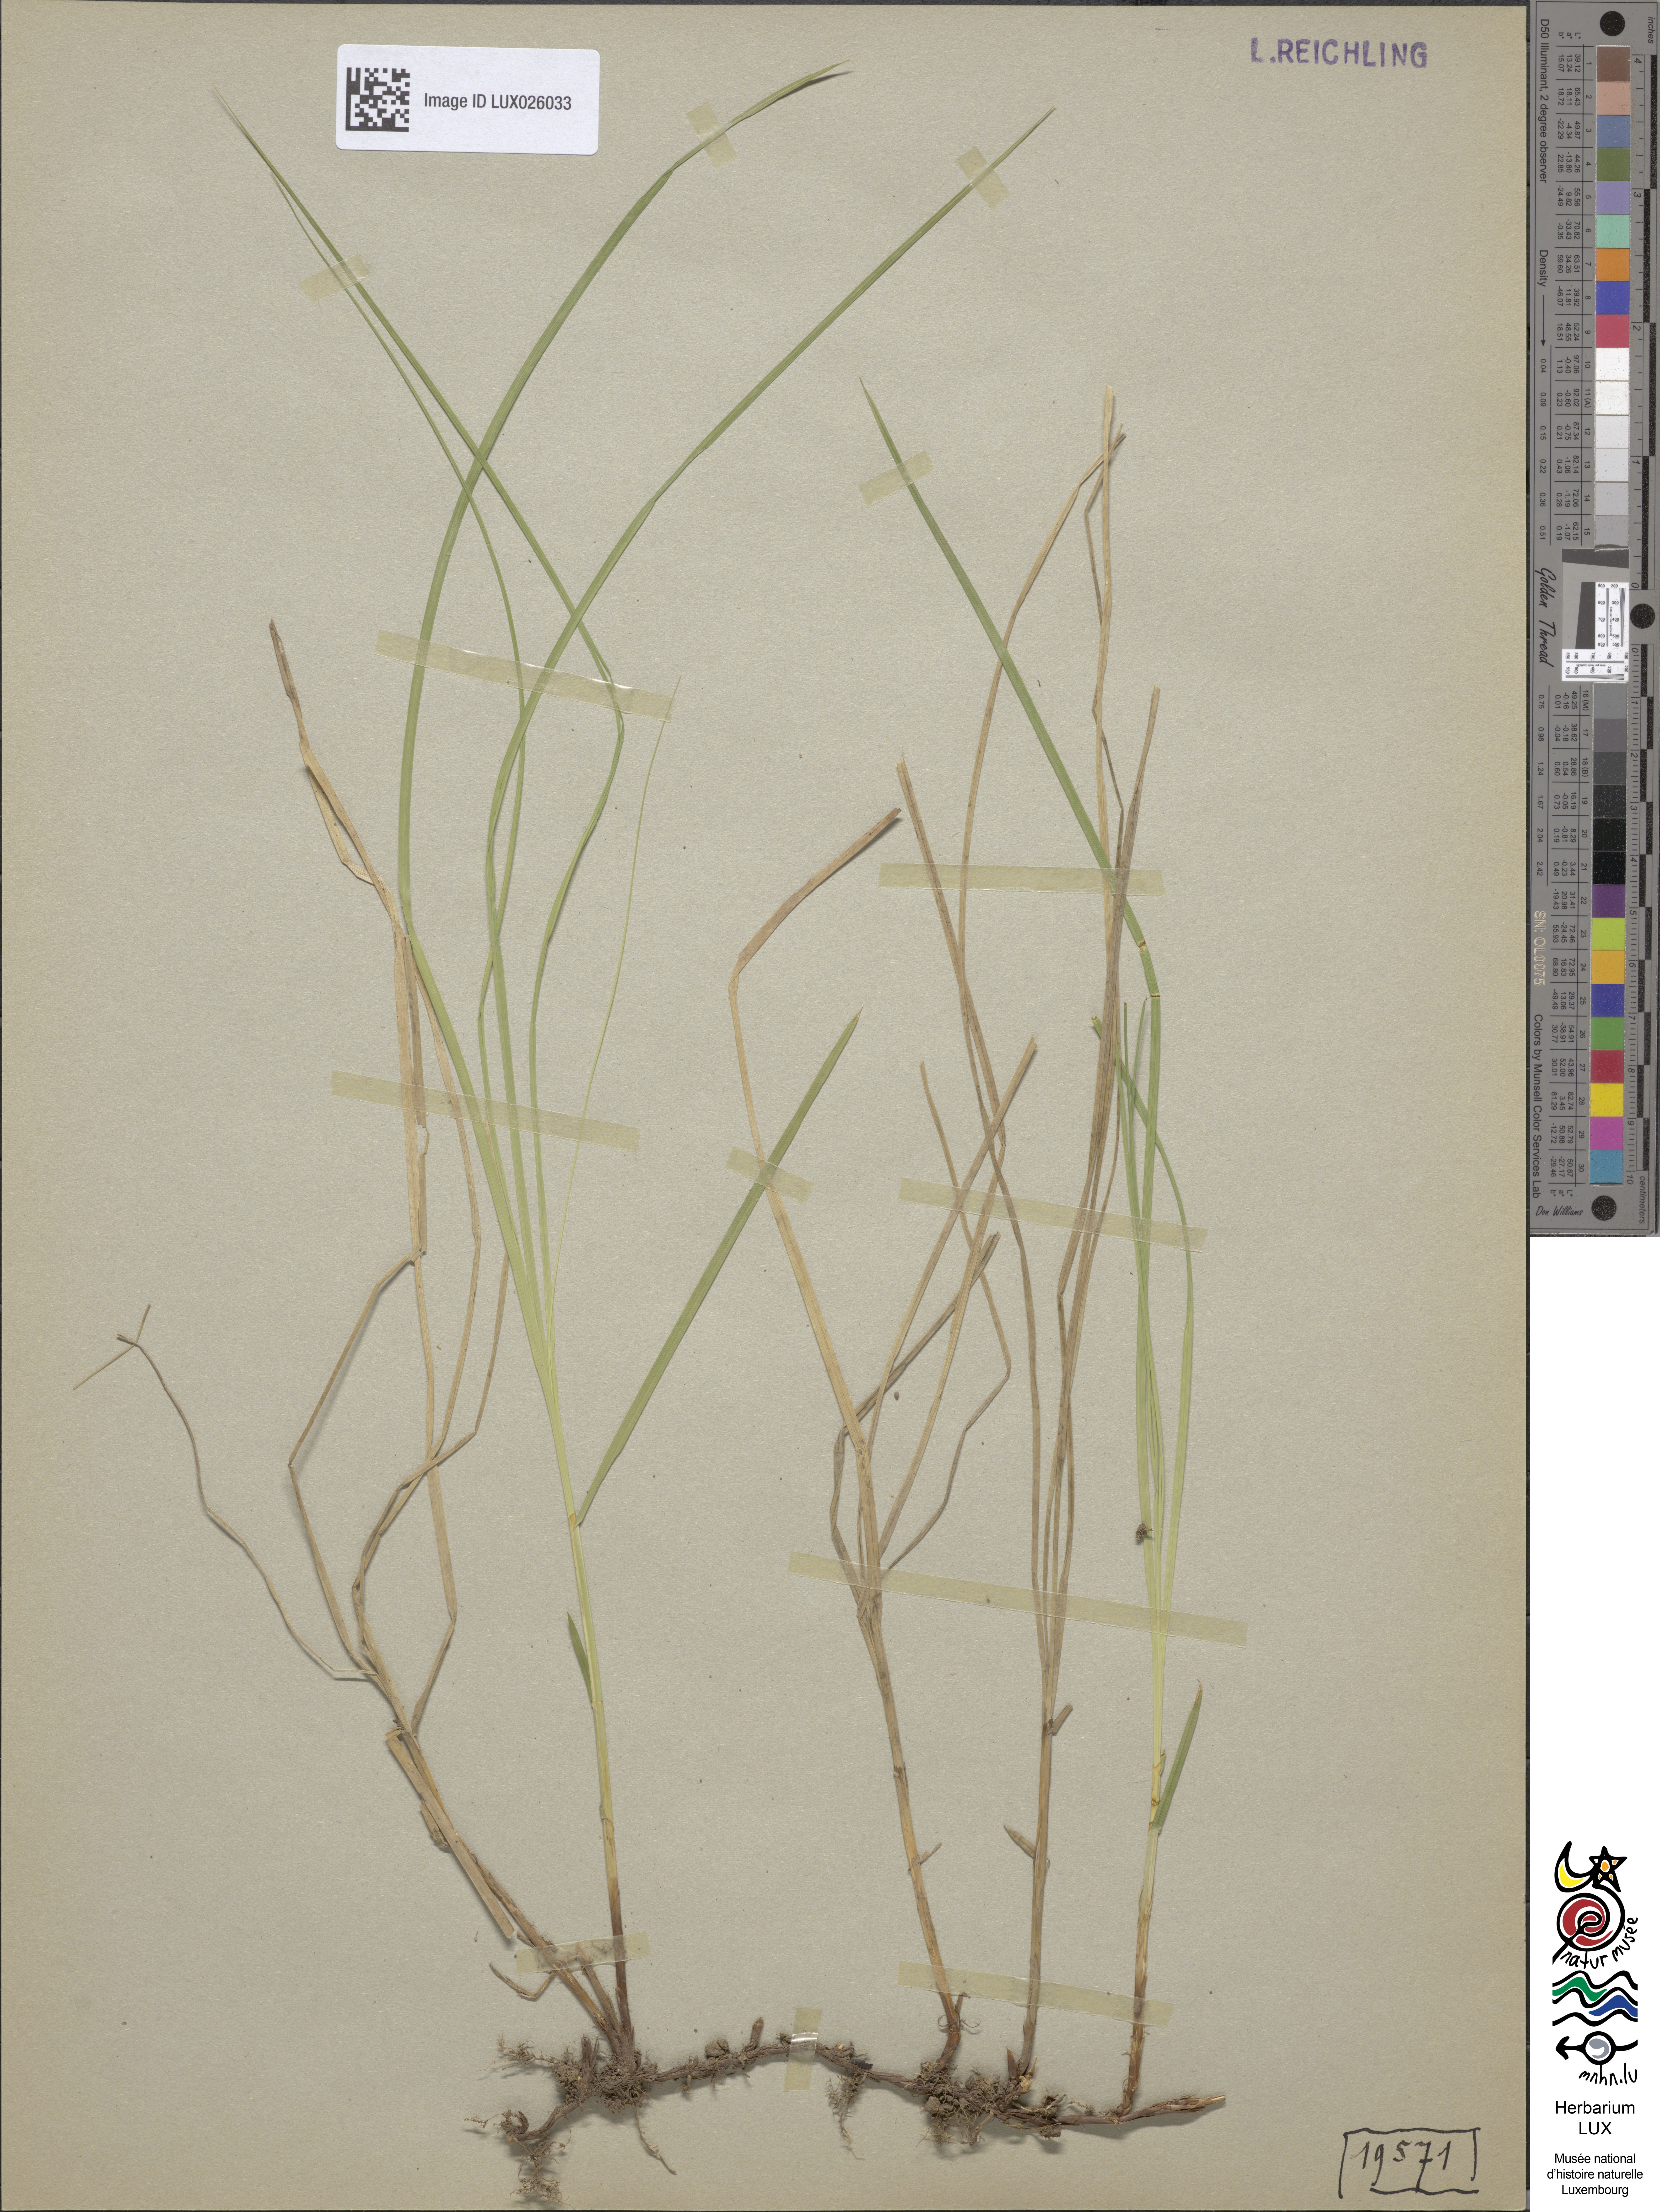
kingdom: Plantae
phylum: Tracheophyta
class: Liliopsida
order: Poales
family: Cyperaceae
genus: Carex
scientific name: Carex brizoides
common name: Quaking-grass sedge
